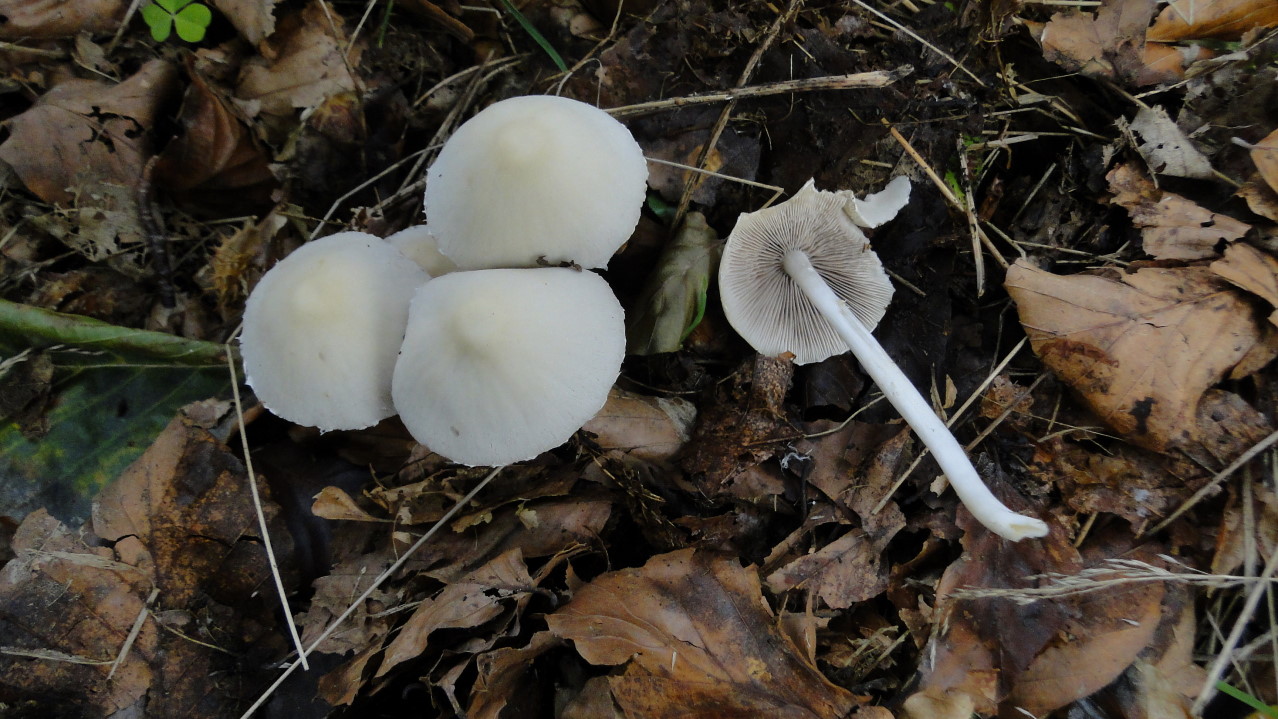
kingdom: Fungi
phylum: Basidiomycota
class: Agaricomycetes
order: Agaricales
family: Psathyrellaceae
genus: Candolleomyces
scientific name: Candolleomyces candolleanus
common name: Candolles mørkhat
